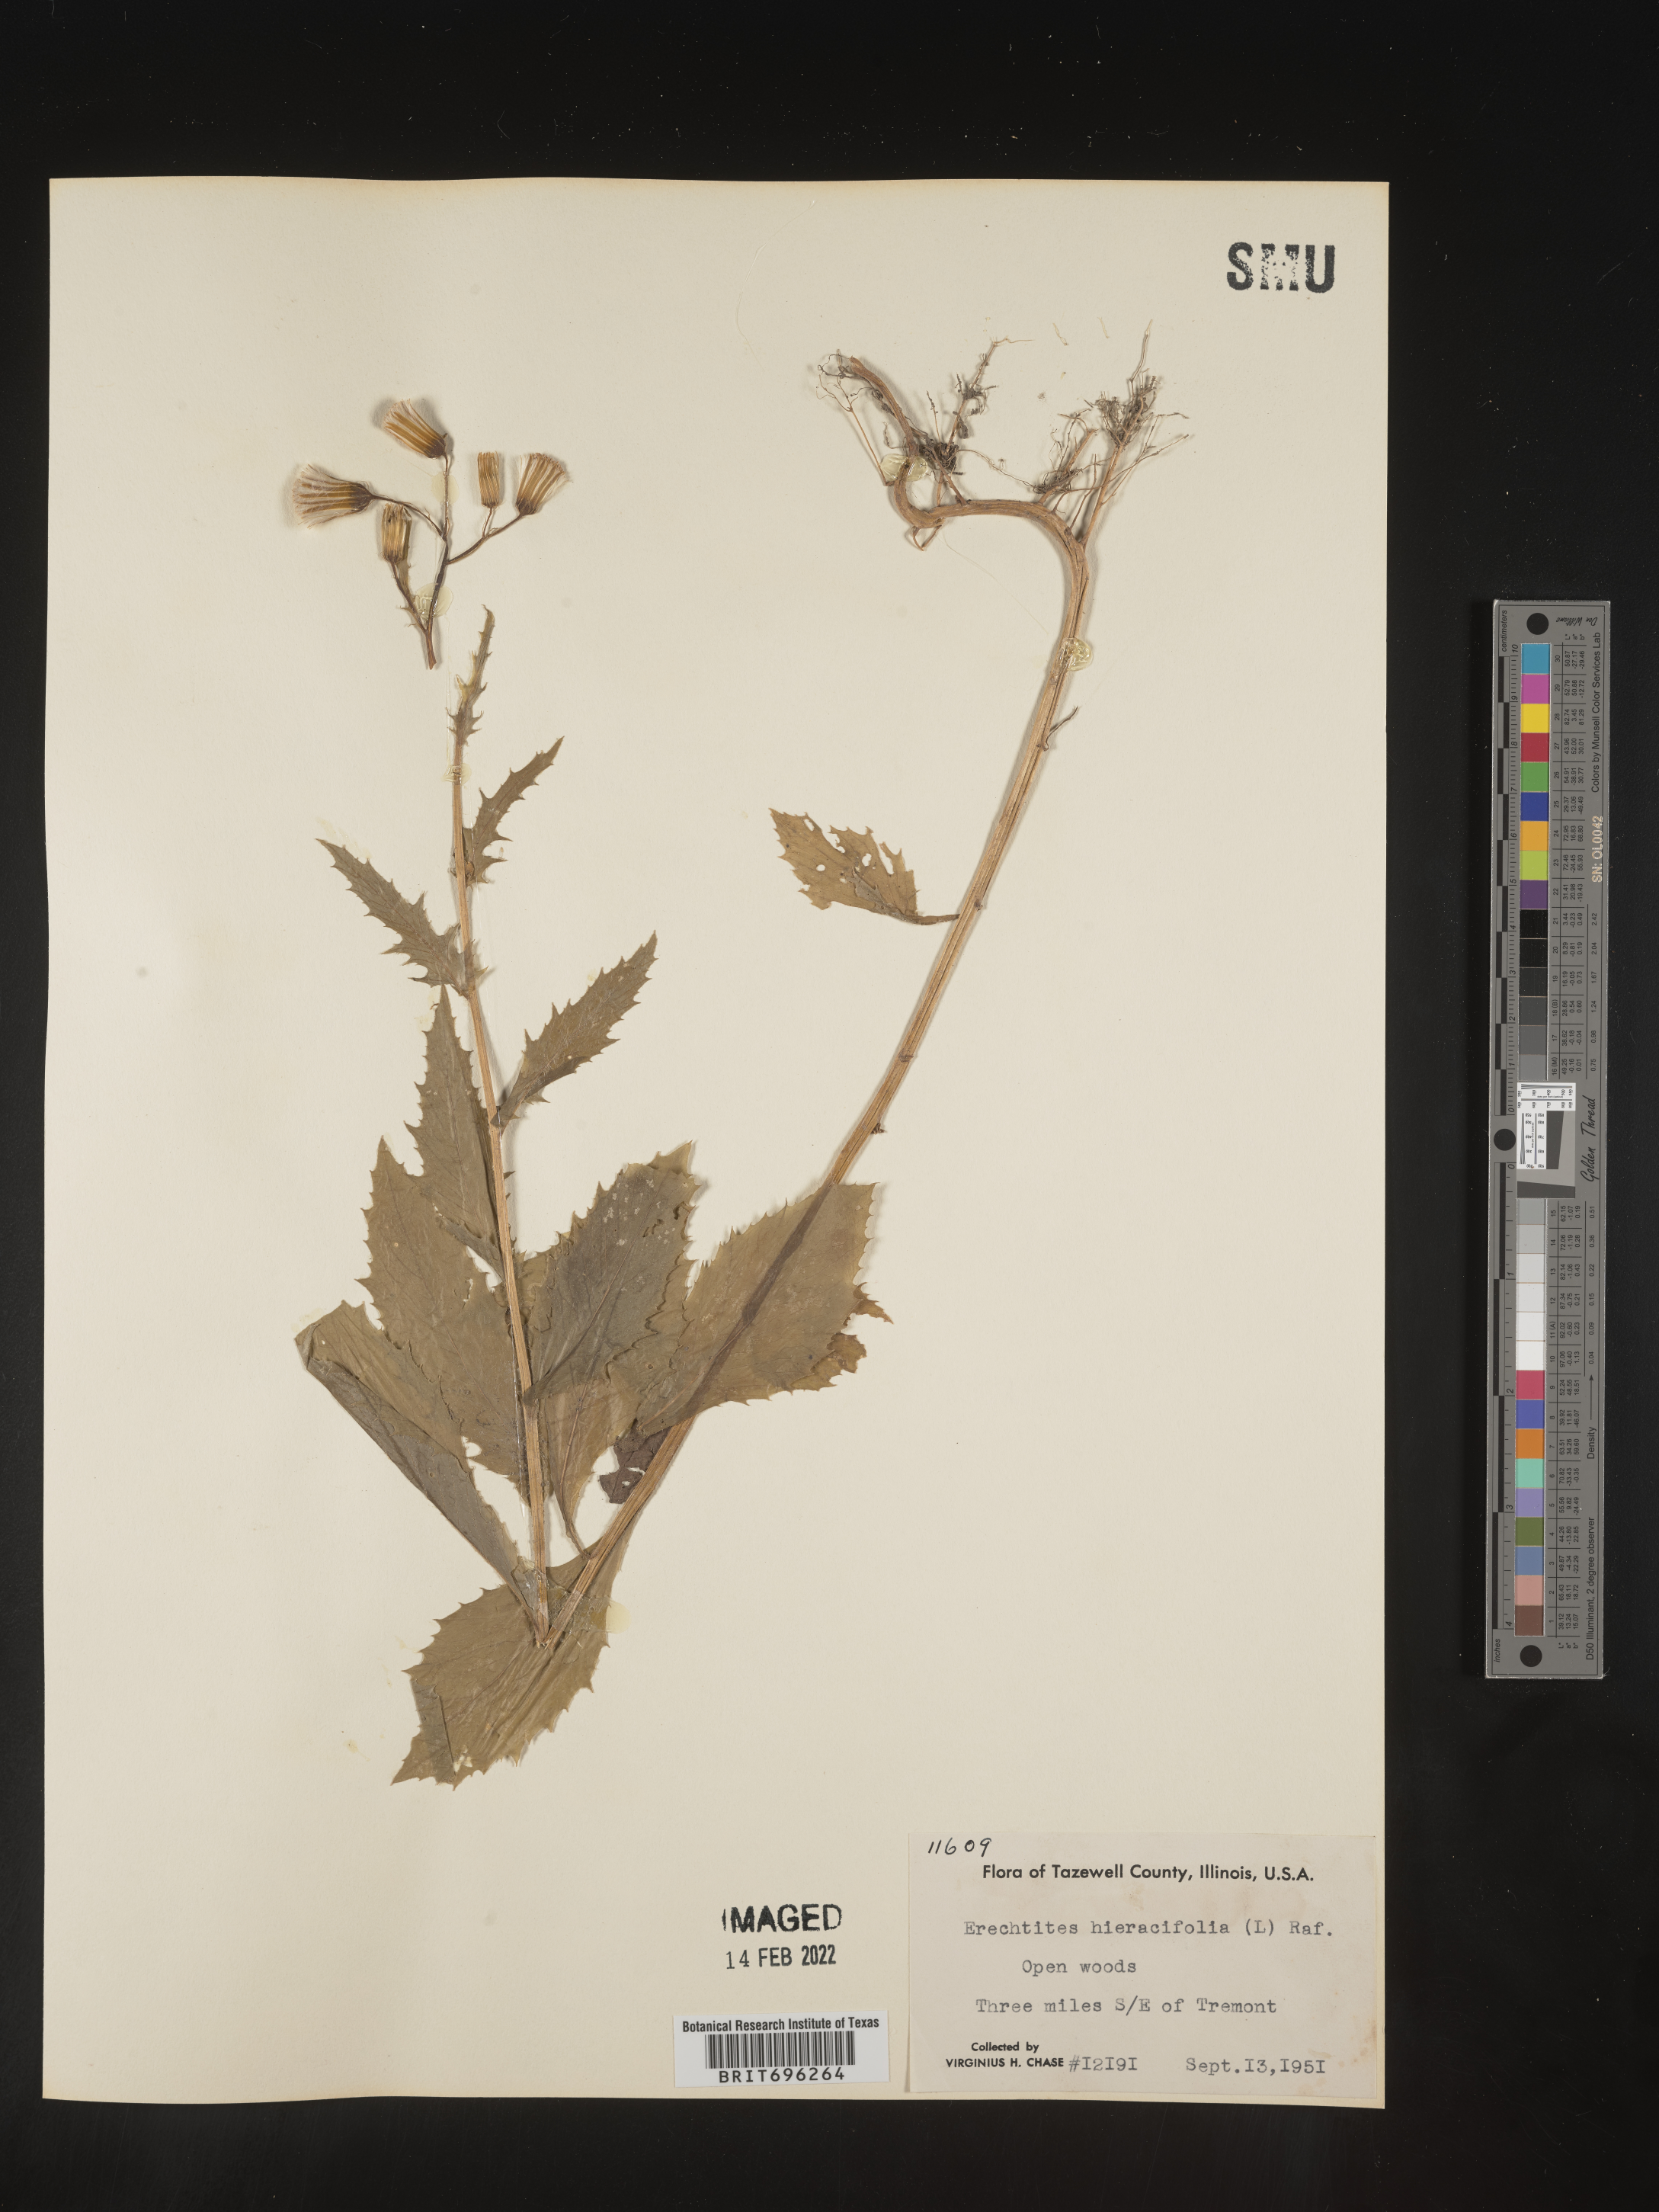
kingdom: Plantae
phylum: Tracheophyta
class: Magnoliopsida
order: Asterales
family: Asteraceae
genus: Erechtites
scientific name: Erechtites hieraciifolius
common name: American burnweed
